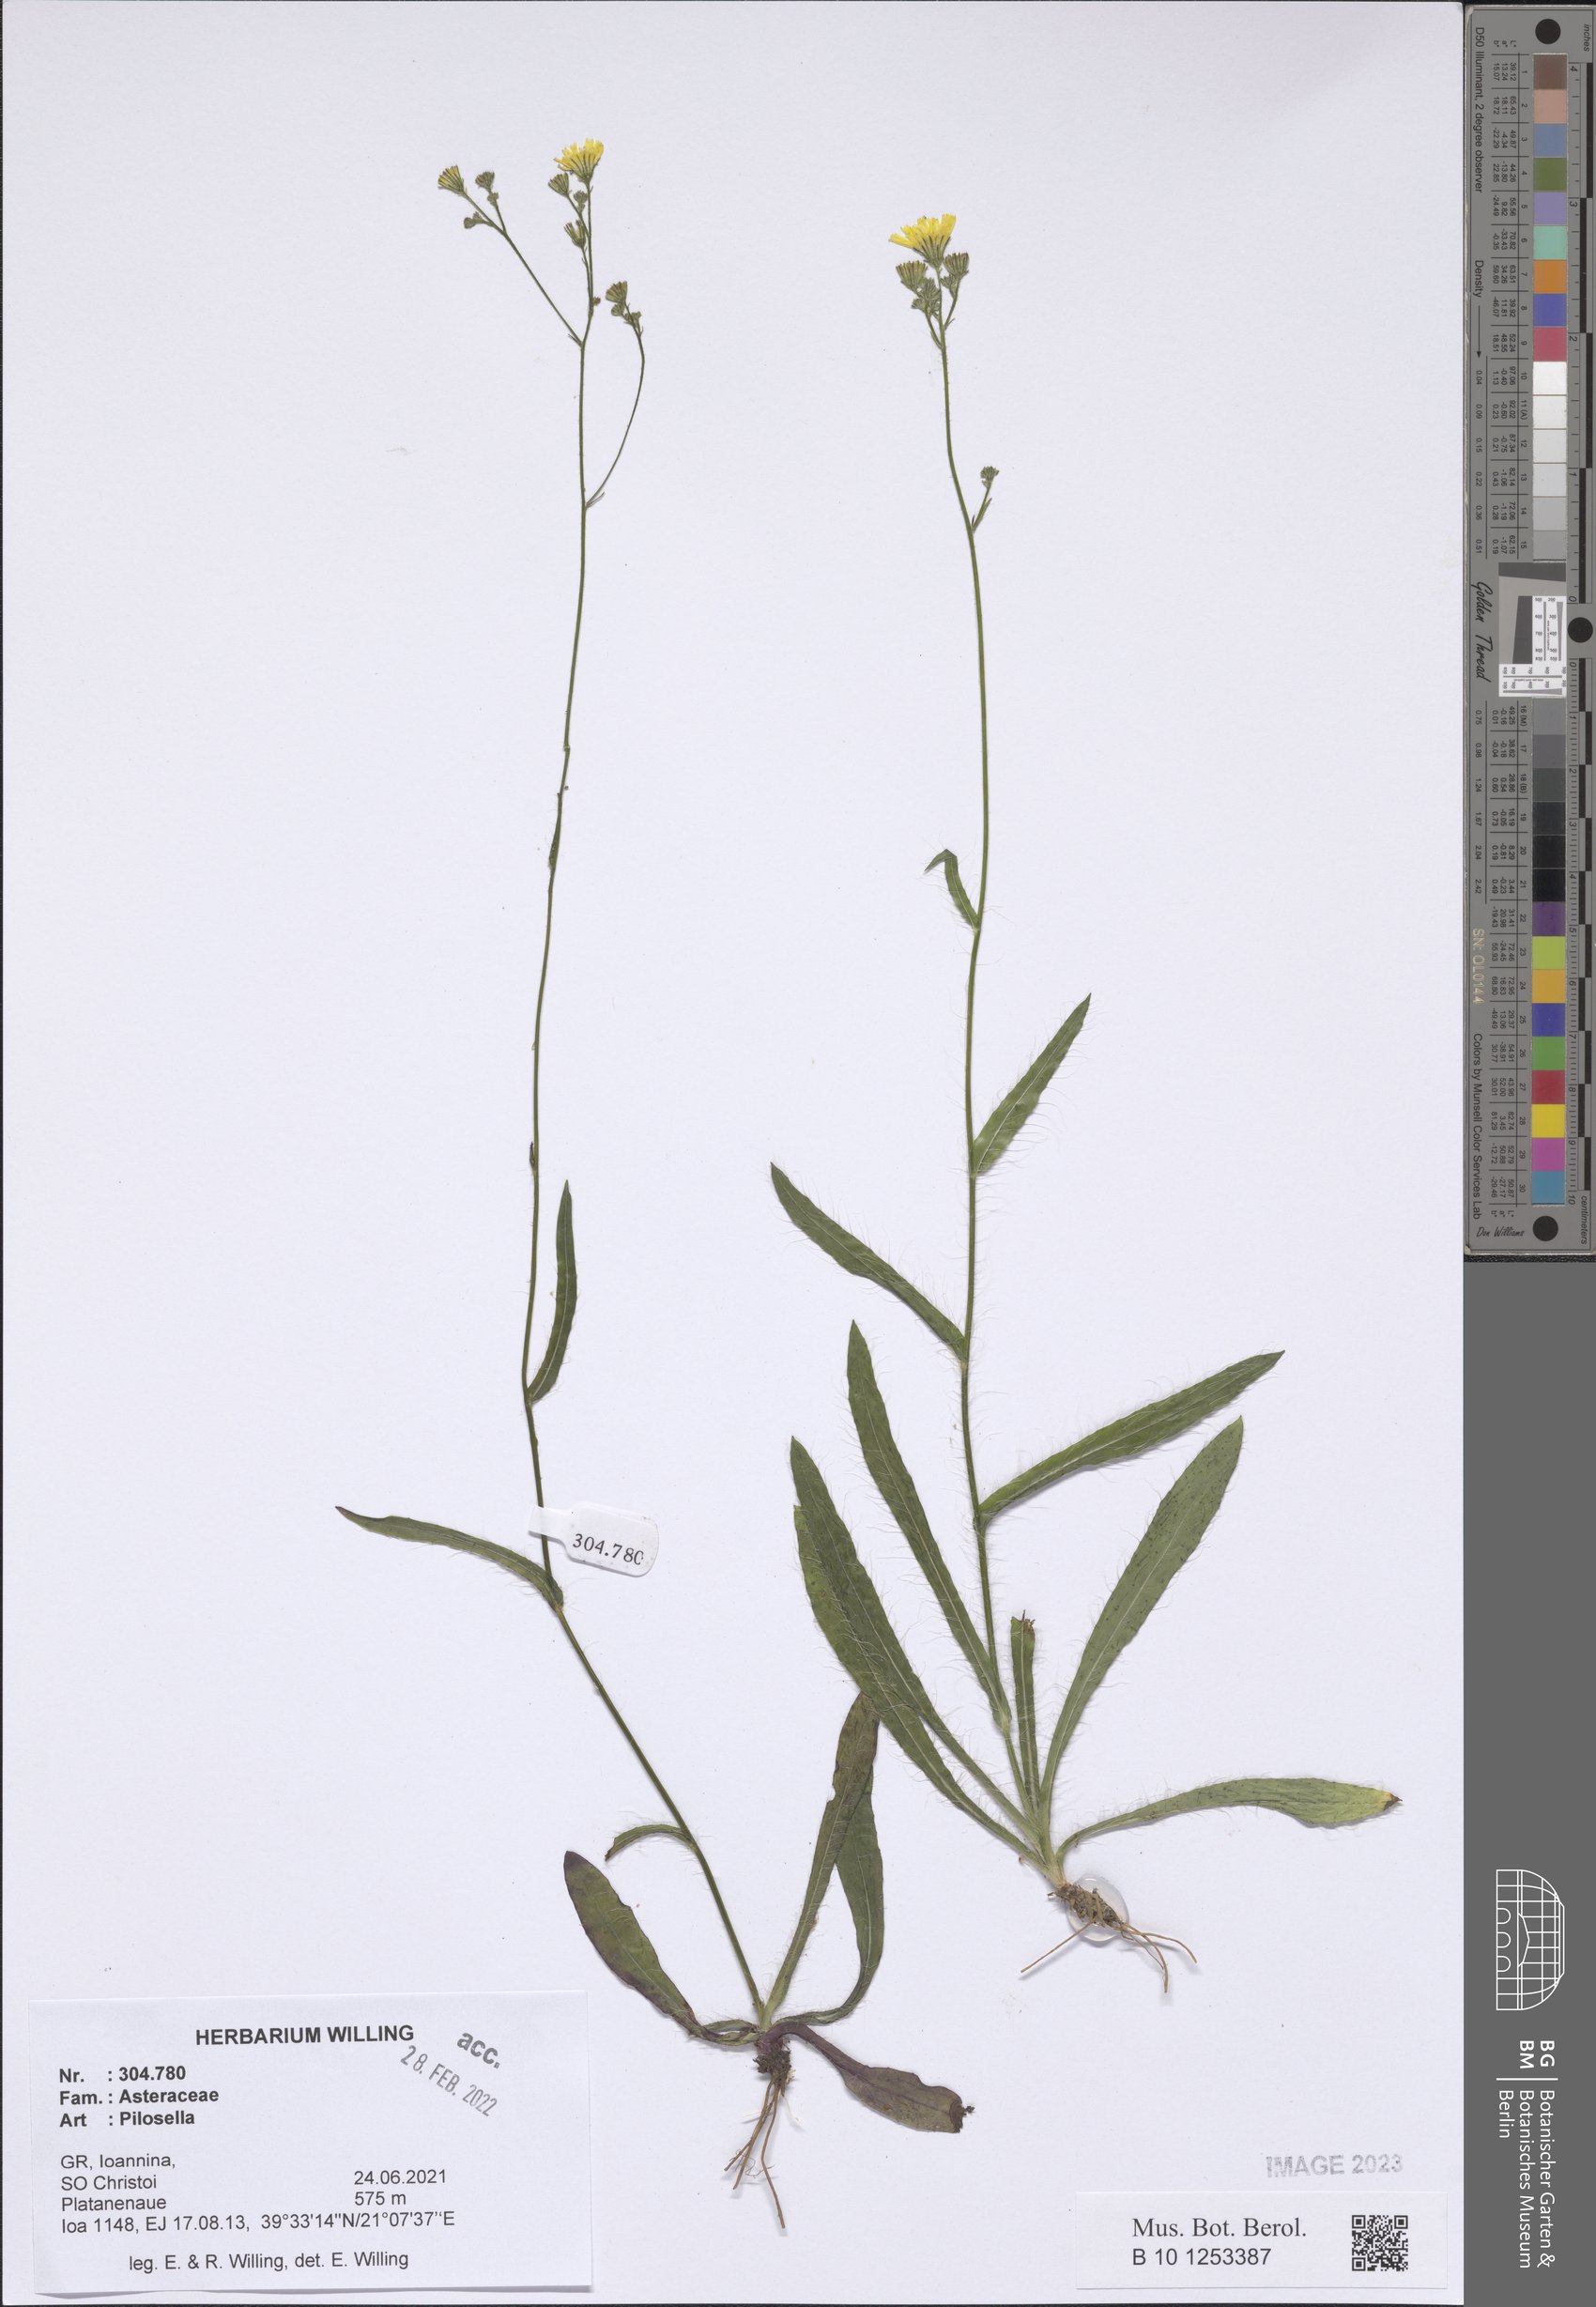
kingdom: Plantae
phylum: Tracheophyta
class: Magnoliopsida
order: Asterales
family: Asteraceae
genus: Pilosella
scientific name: Pilosella
